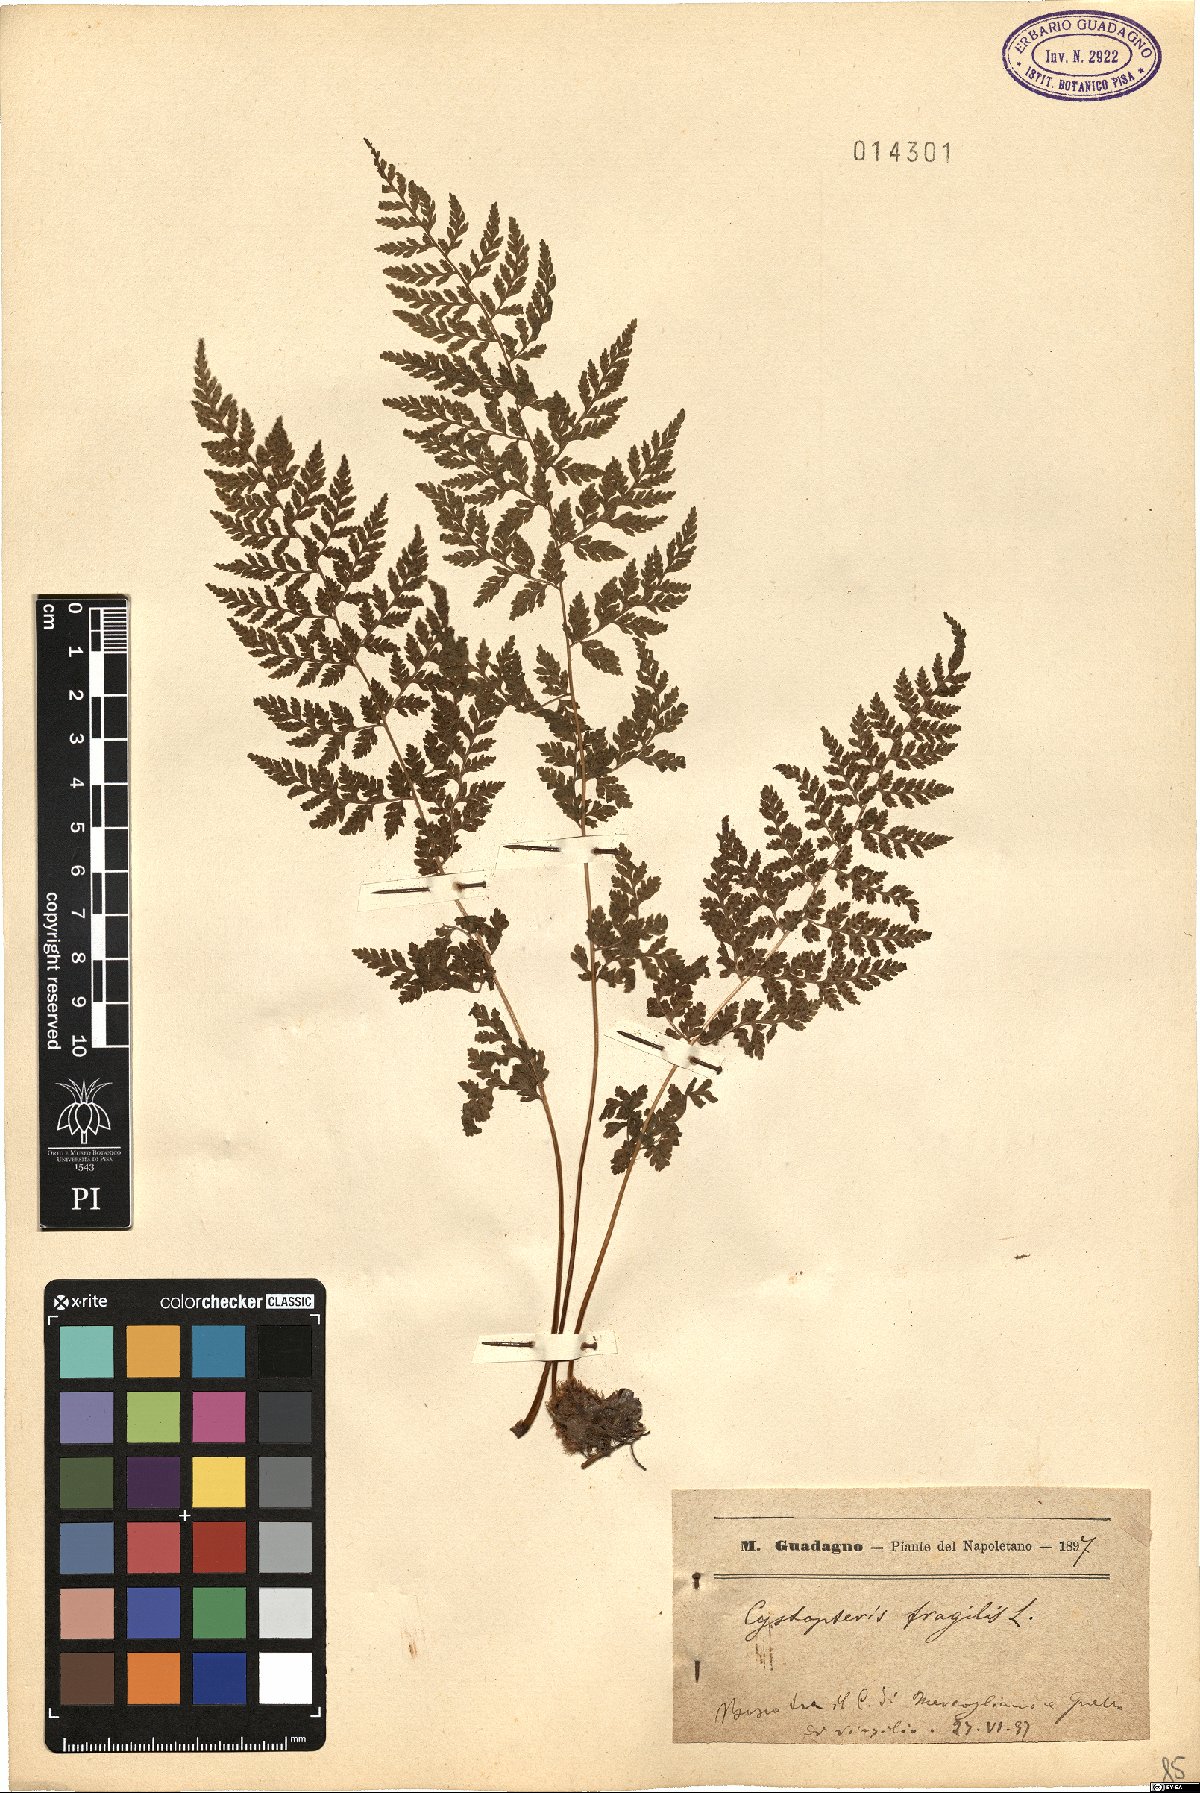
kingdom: Plantae
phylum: Tracheophyta
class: Polypodiopsida
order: Polypodiales
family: Cystopteridaceae
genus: Cystopteris
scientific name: Cystopteris fragilis
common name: Brittle bladder fern
